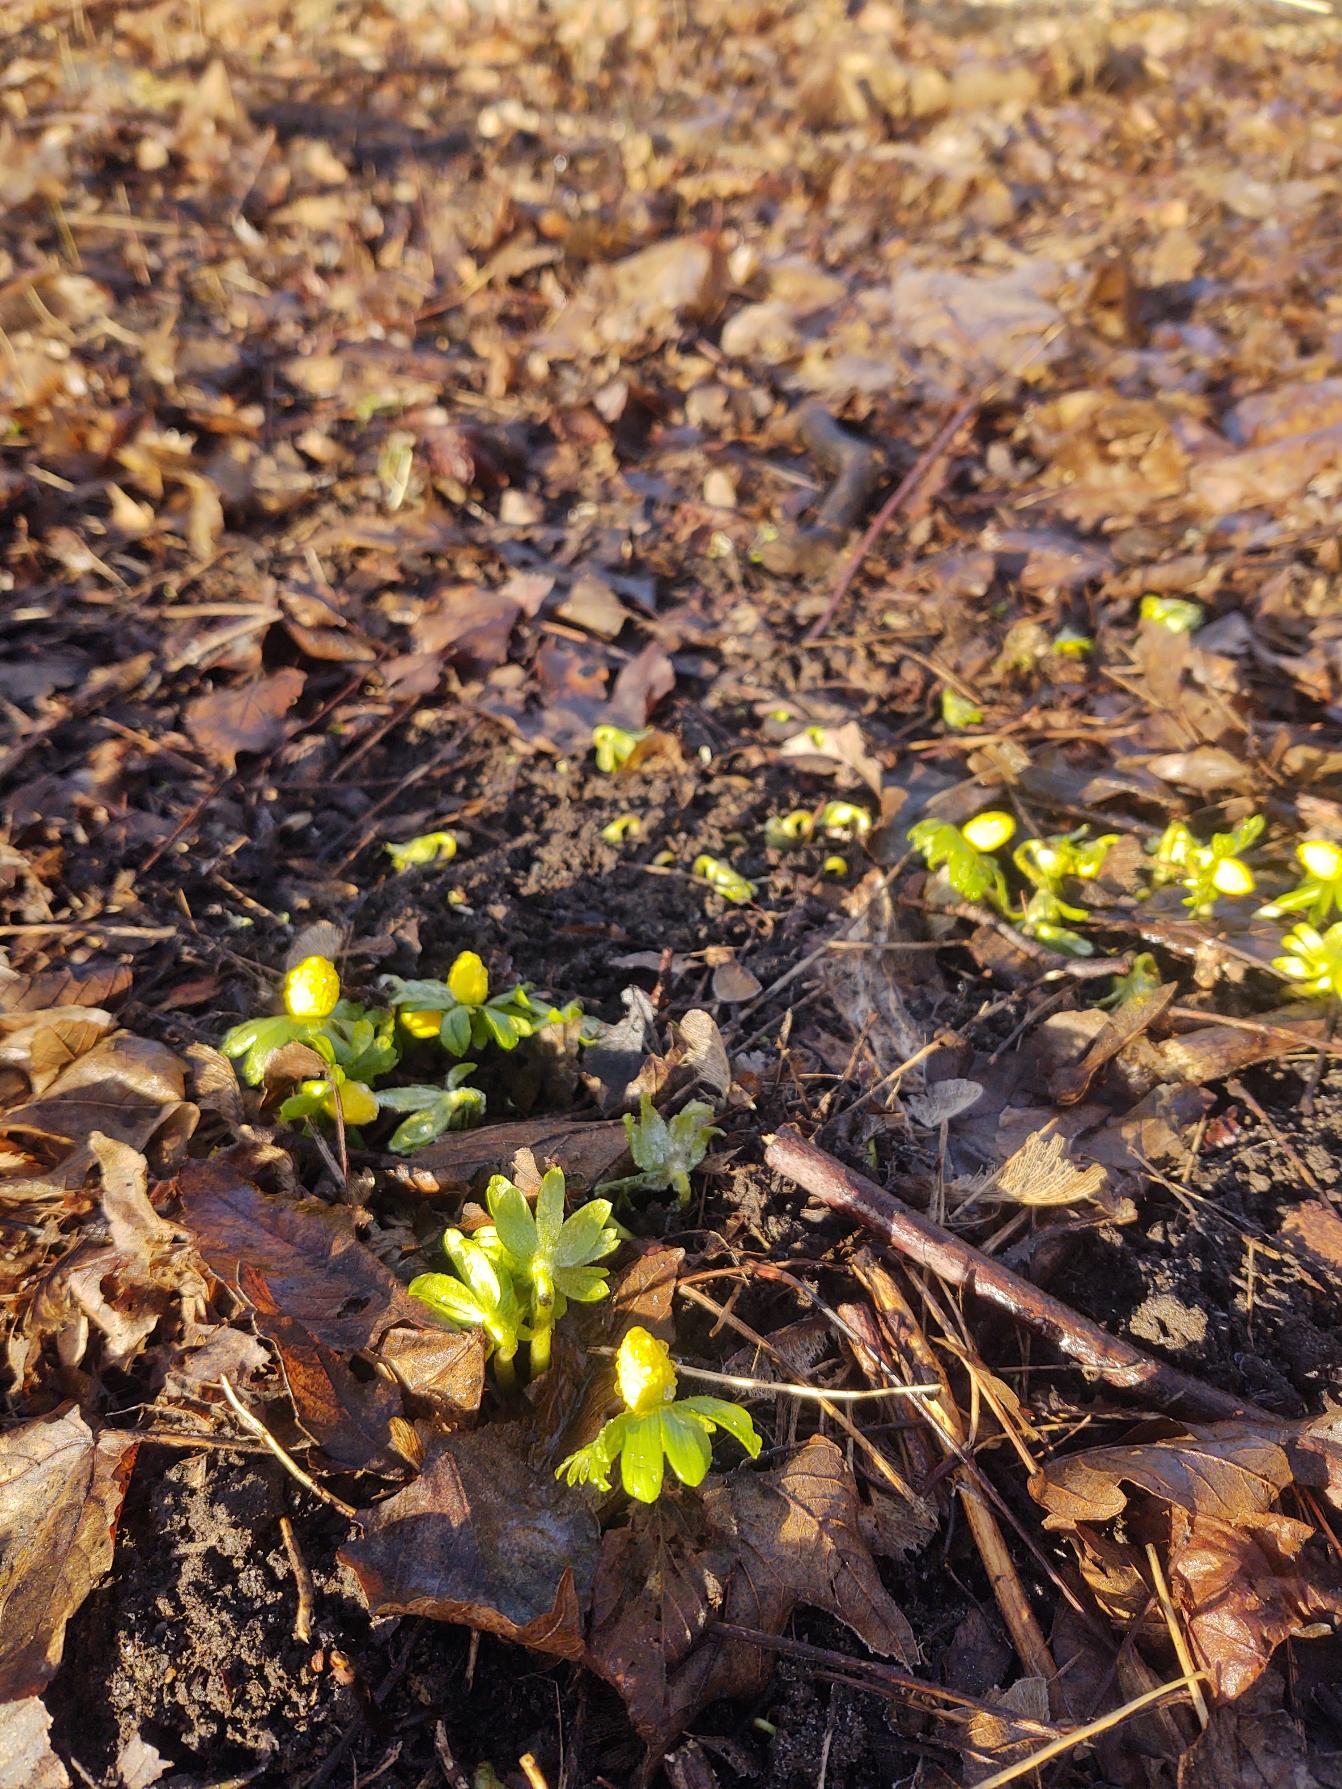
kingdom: Plantae
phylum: Tracheophyta
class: Magnoliopsida
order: Ranunculales
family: Ranunculaceae
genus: Eranthis
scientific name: Eranthis hyemalis
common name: Erantis
